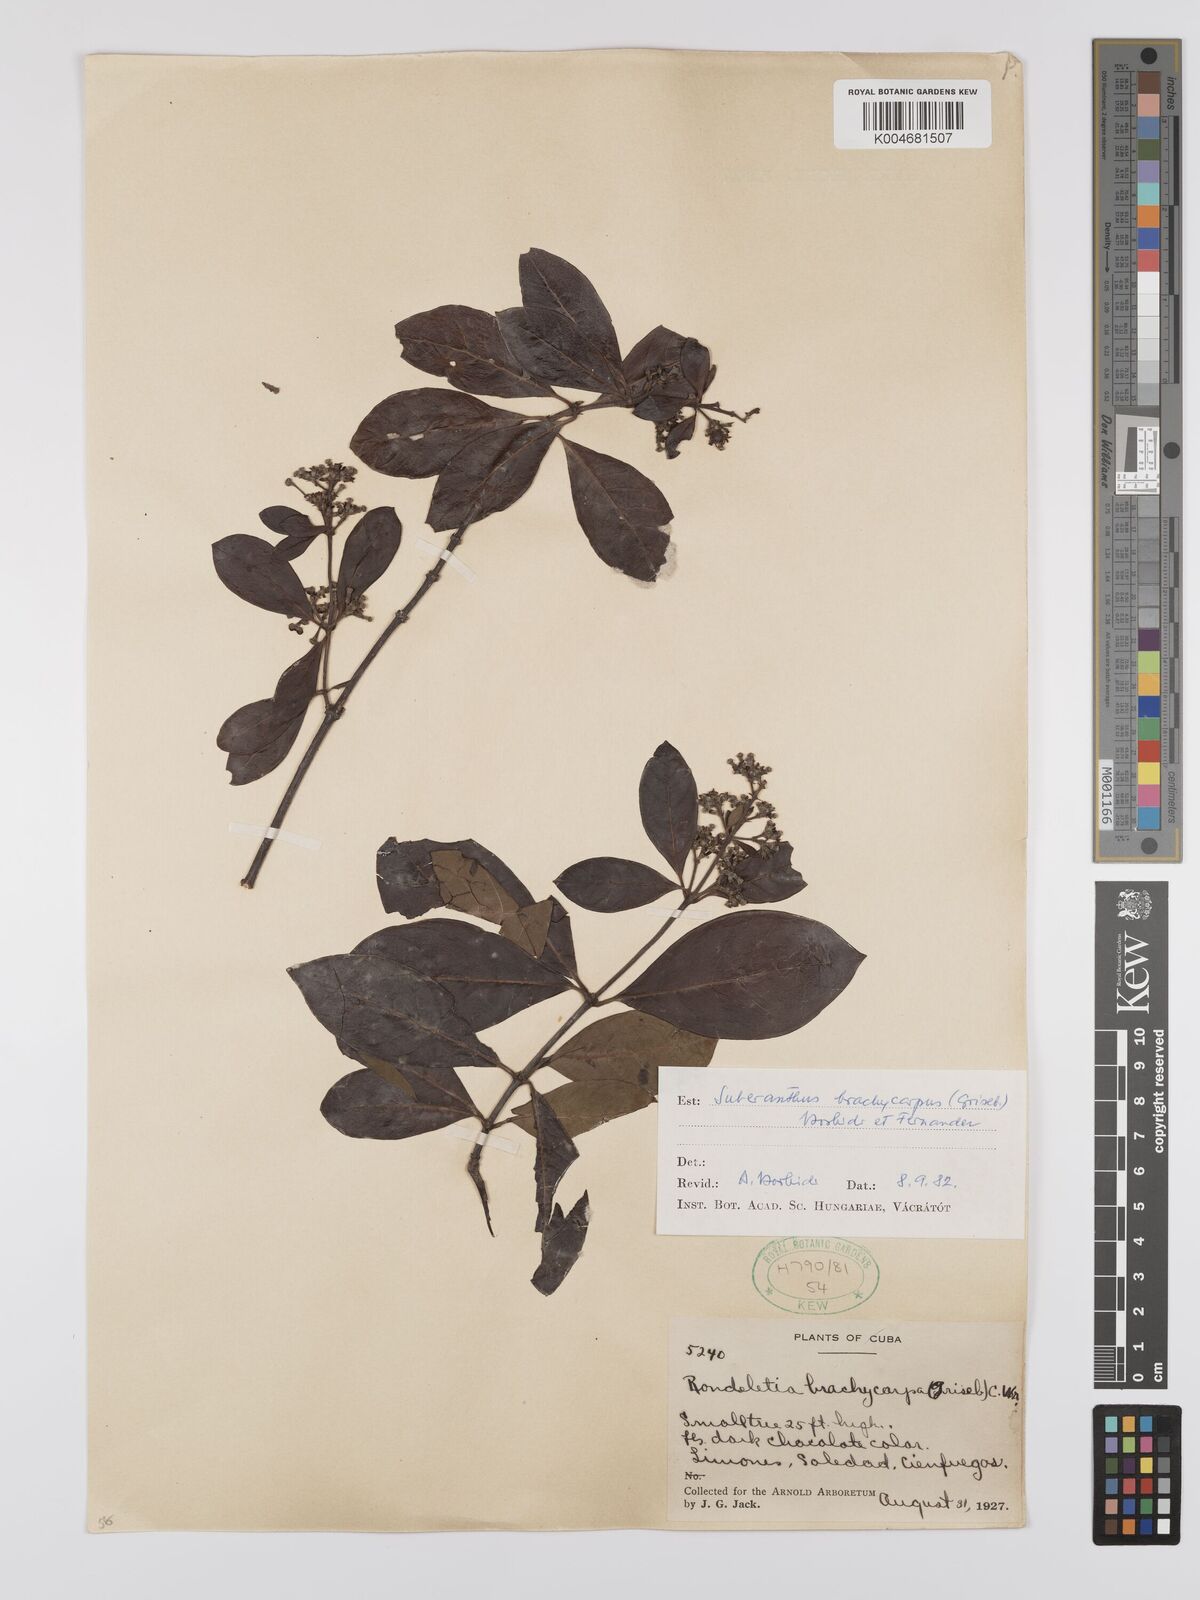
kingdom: Plantae
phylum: Tracheophyta
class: Magnoliopsida
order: Gentianales
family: Rubiaceae
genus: Suberanthus
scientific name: Suberanthus brachycarpus
